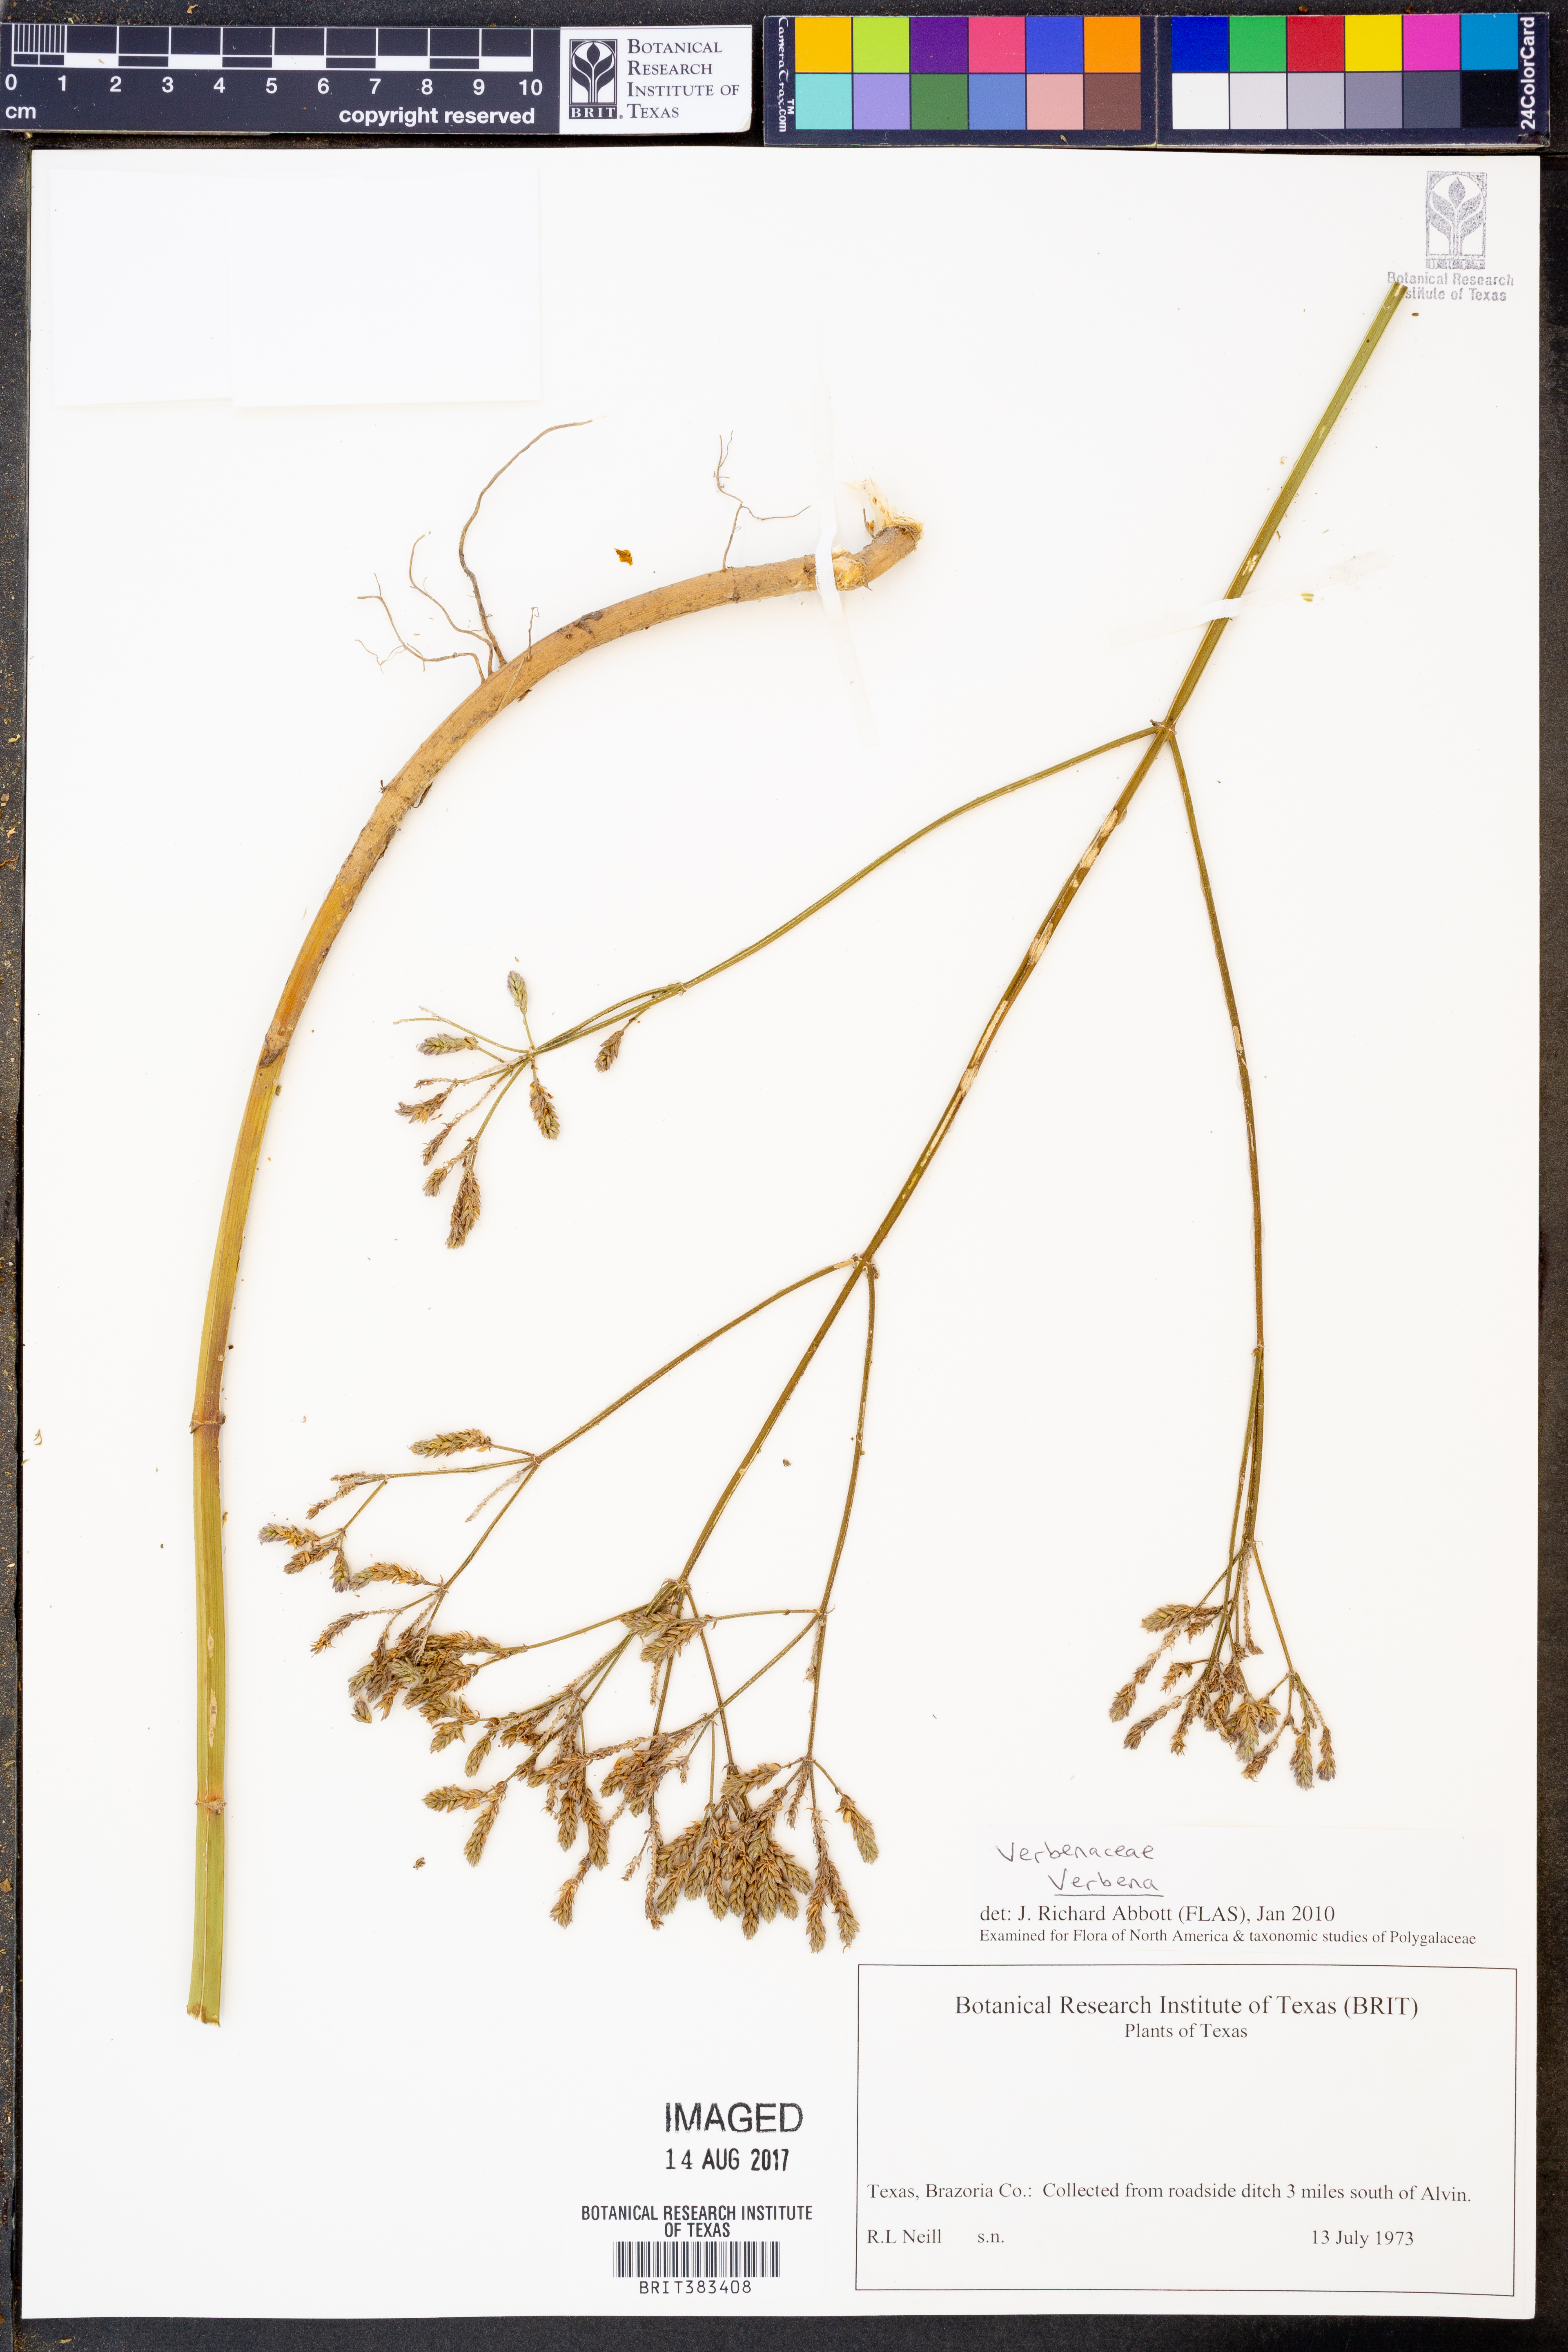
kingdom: Plantae
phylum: Tracheophyta
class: Magnoliopsida
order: Lamiales
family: Verbenaceae
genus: Verbena
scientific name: Verbena
